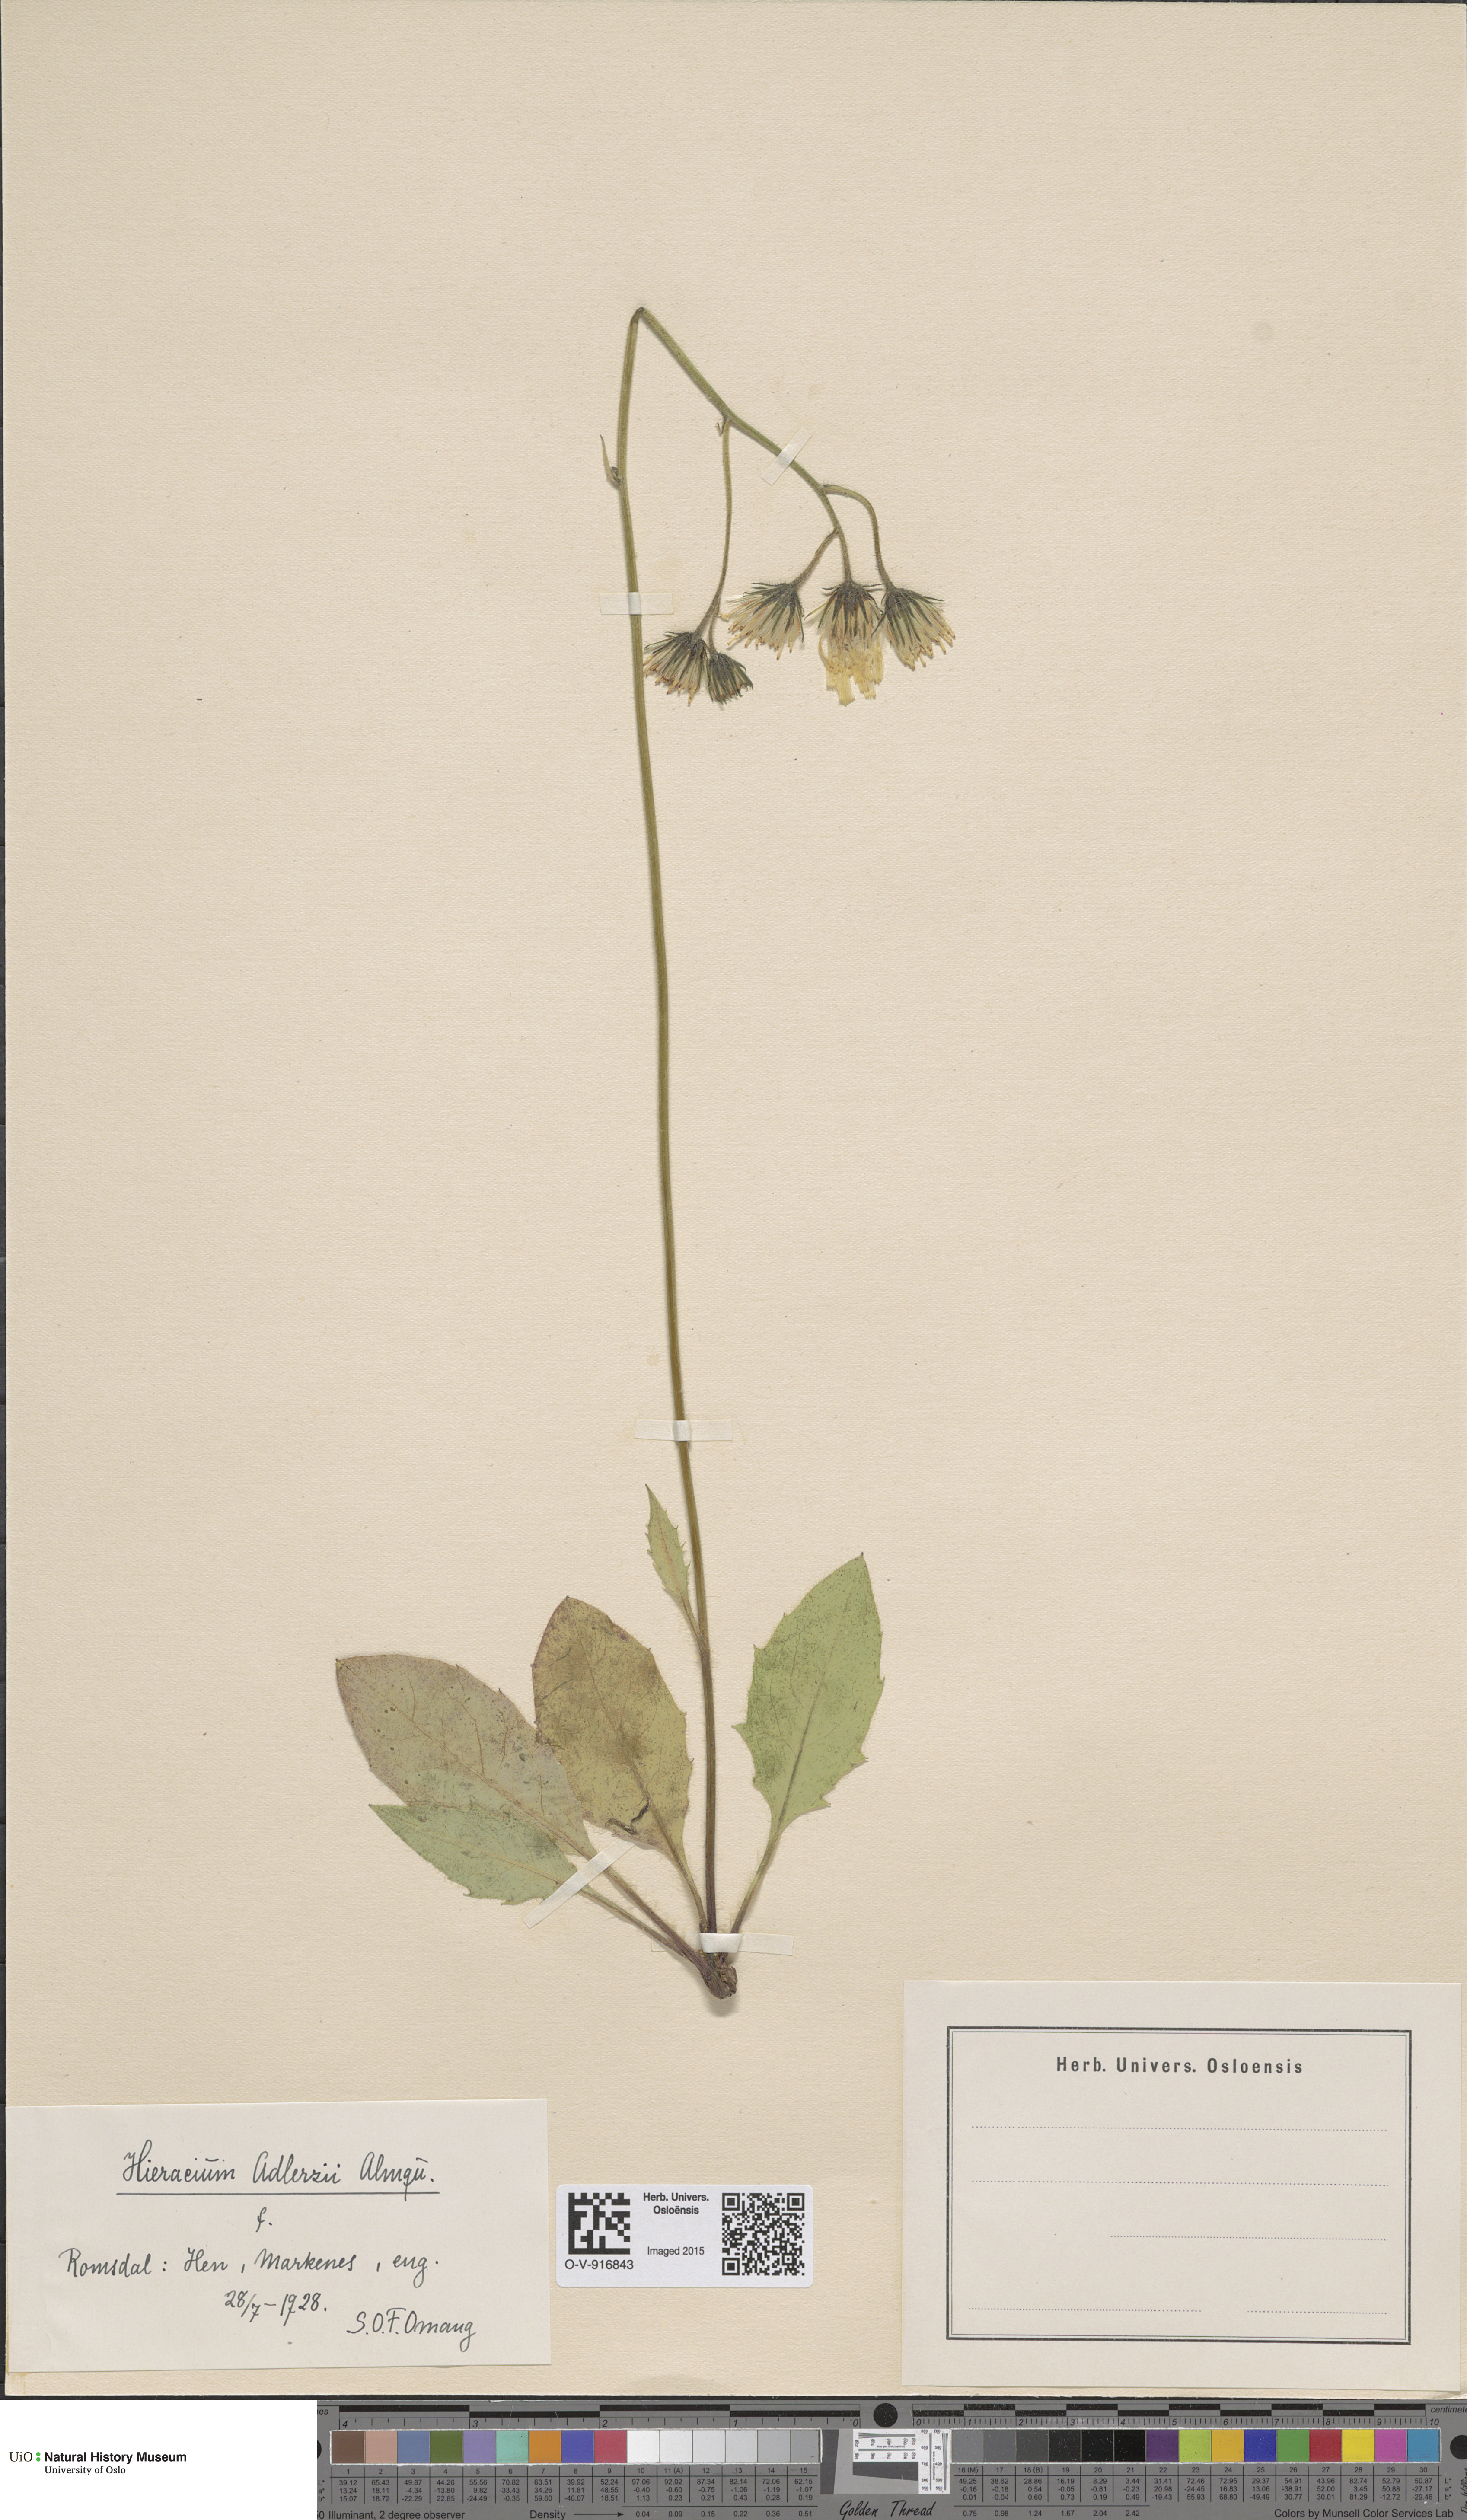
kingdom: Plantae
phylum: Tracheophyta
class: Magnoliopsida
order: Asterales
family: Asteraceae
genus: Hieracium
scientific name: Hieracium
